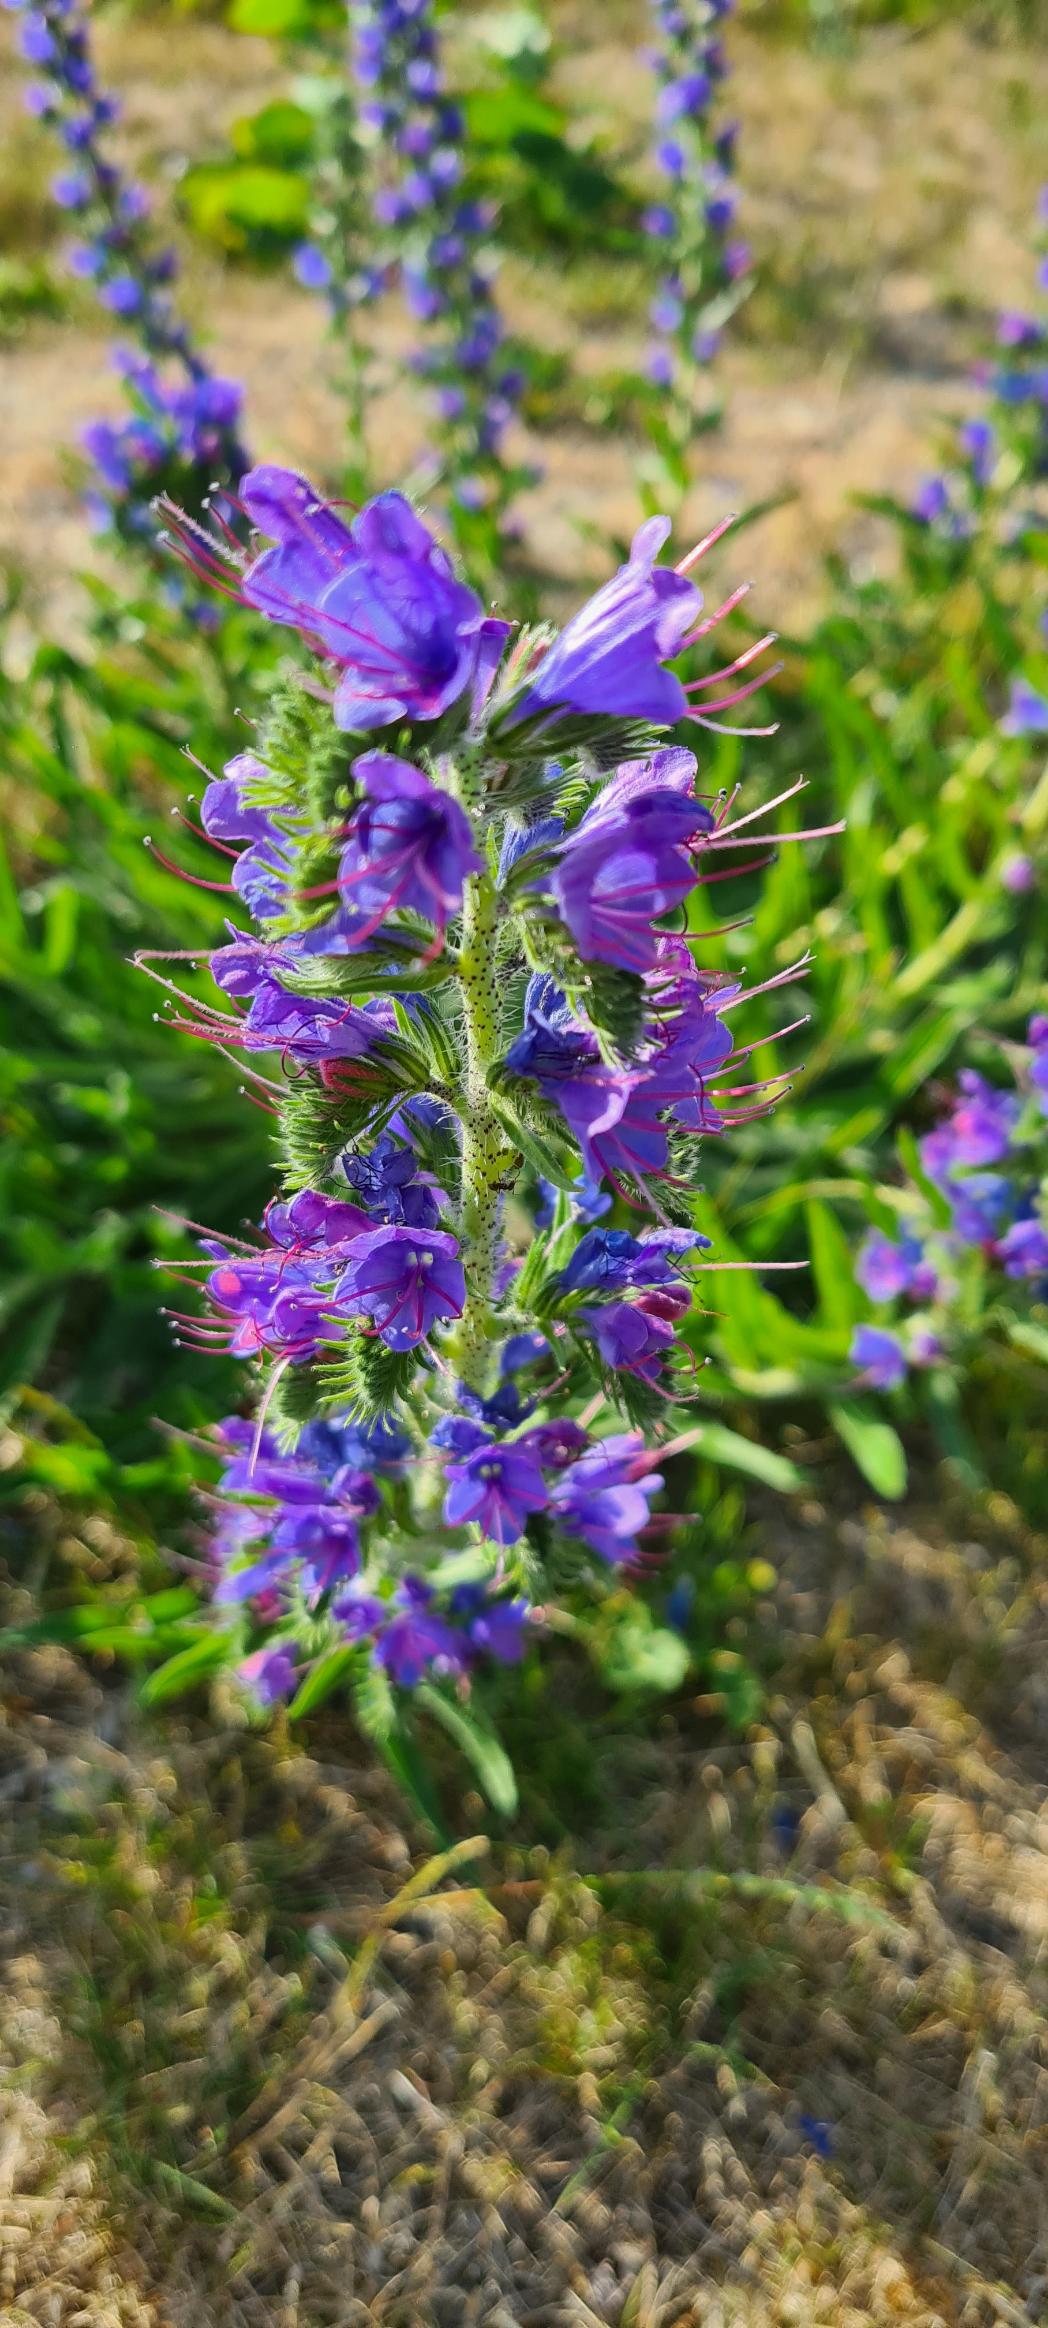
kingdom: Plantae
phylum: Tracheophyta
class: Magnoliopsida
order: Boraginales
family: Boraginaceae
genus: Echium
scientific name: Echium vulgare
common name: Slangehoved
